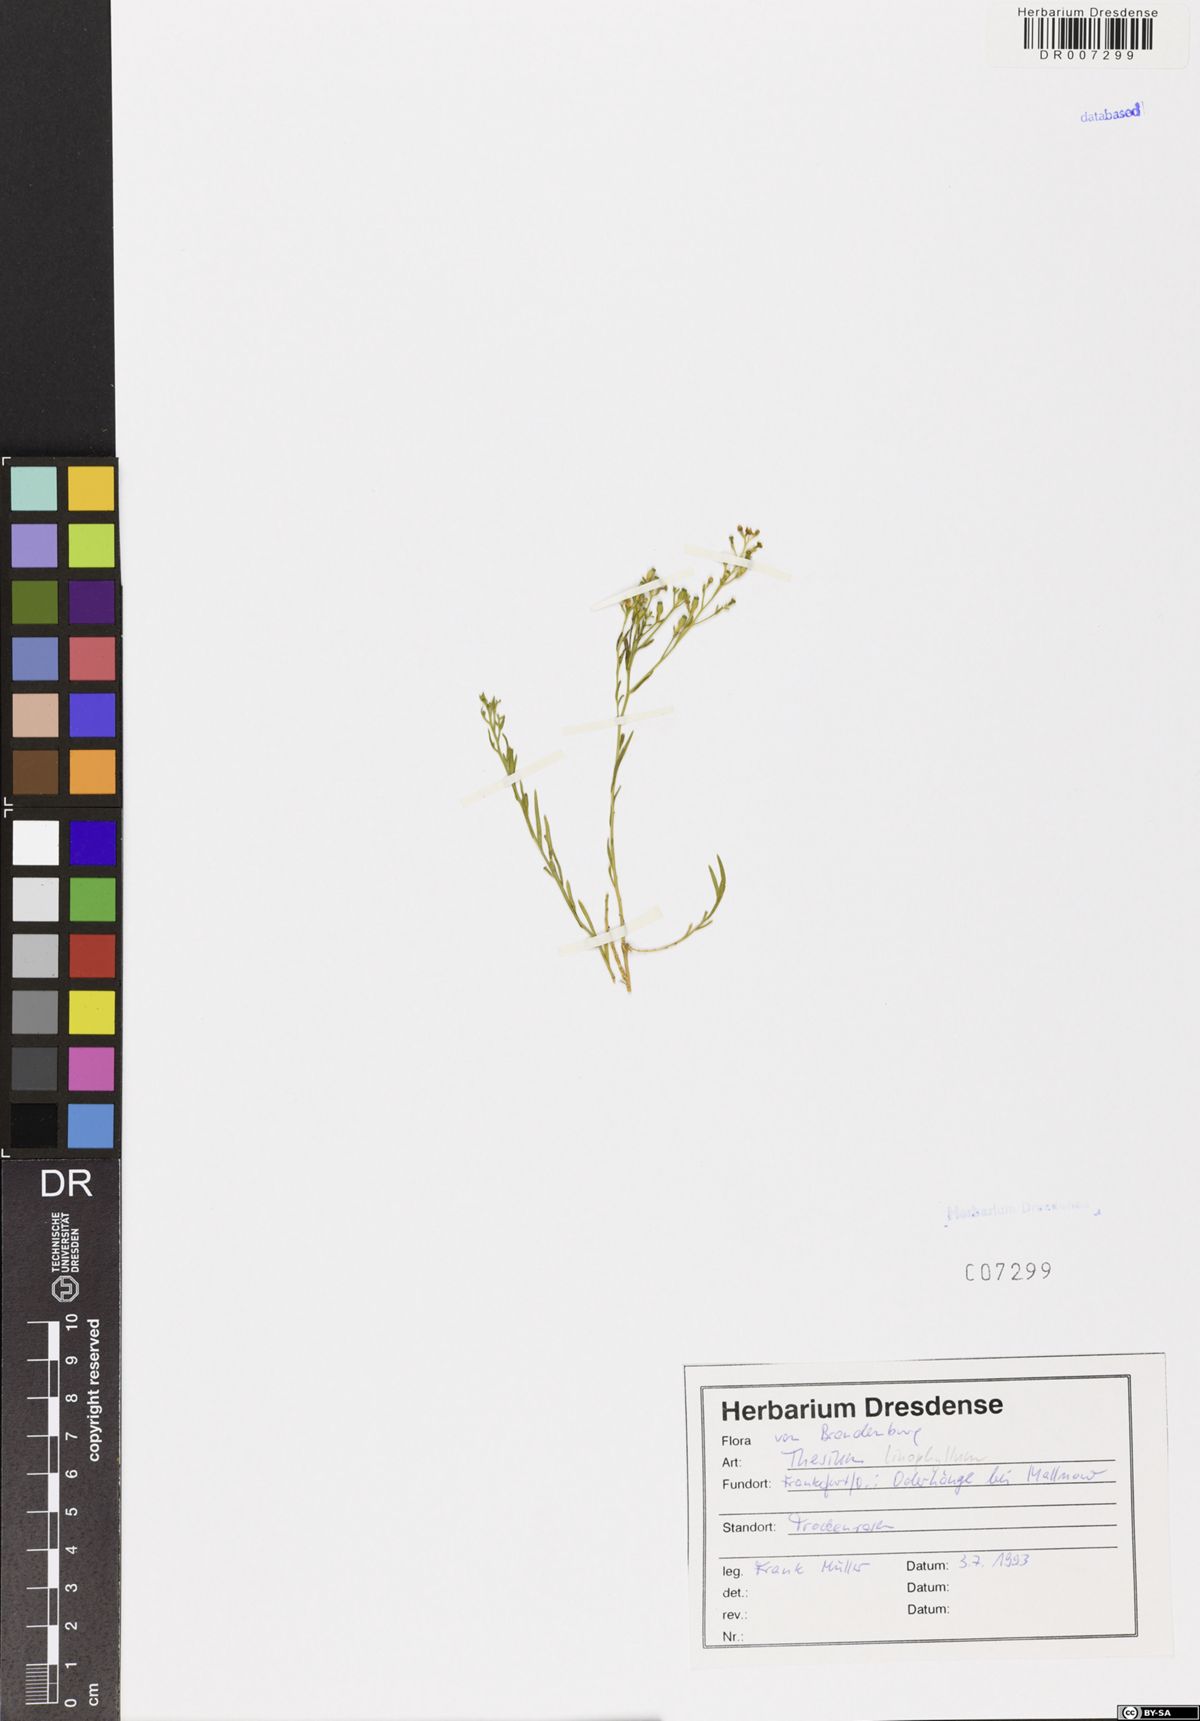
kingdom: Plantae
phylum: Tracheophyta
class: Magnoliopsida
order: Santalales
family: Thesiaceae
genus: Thesium
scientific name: Thesium linophyllon
